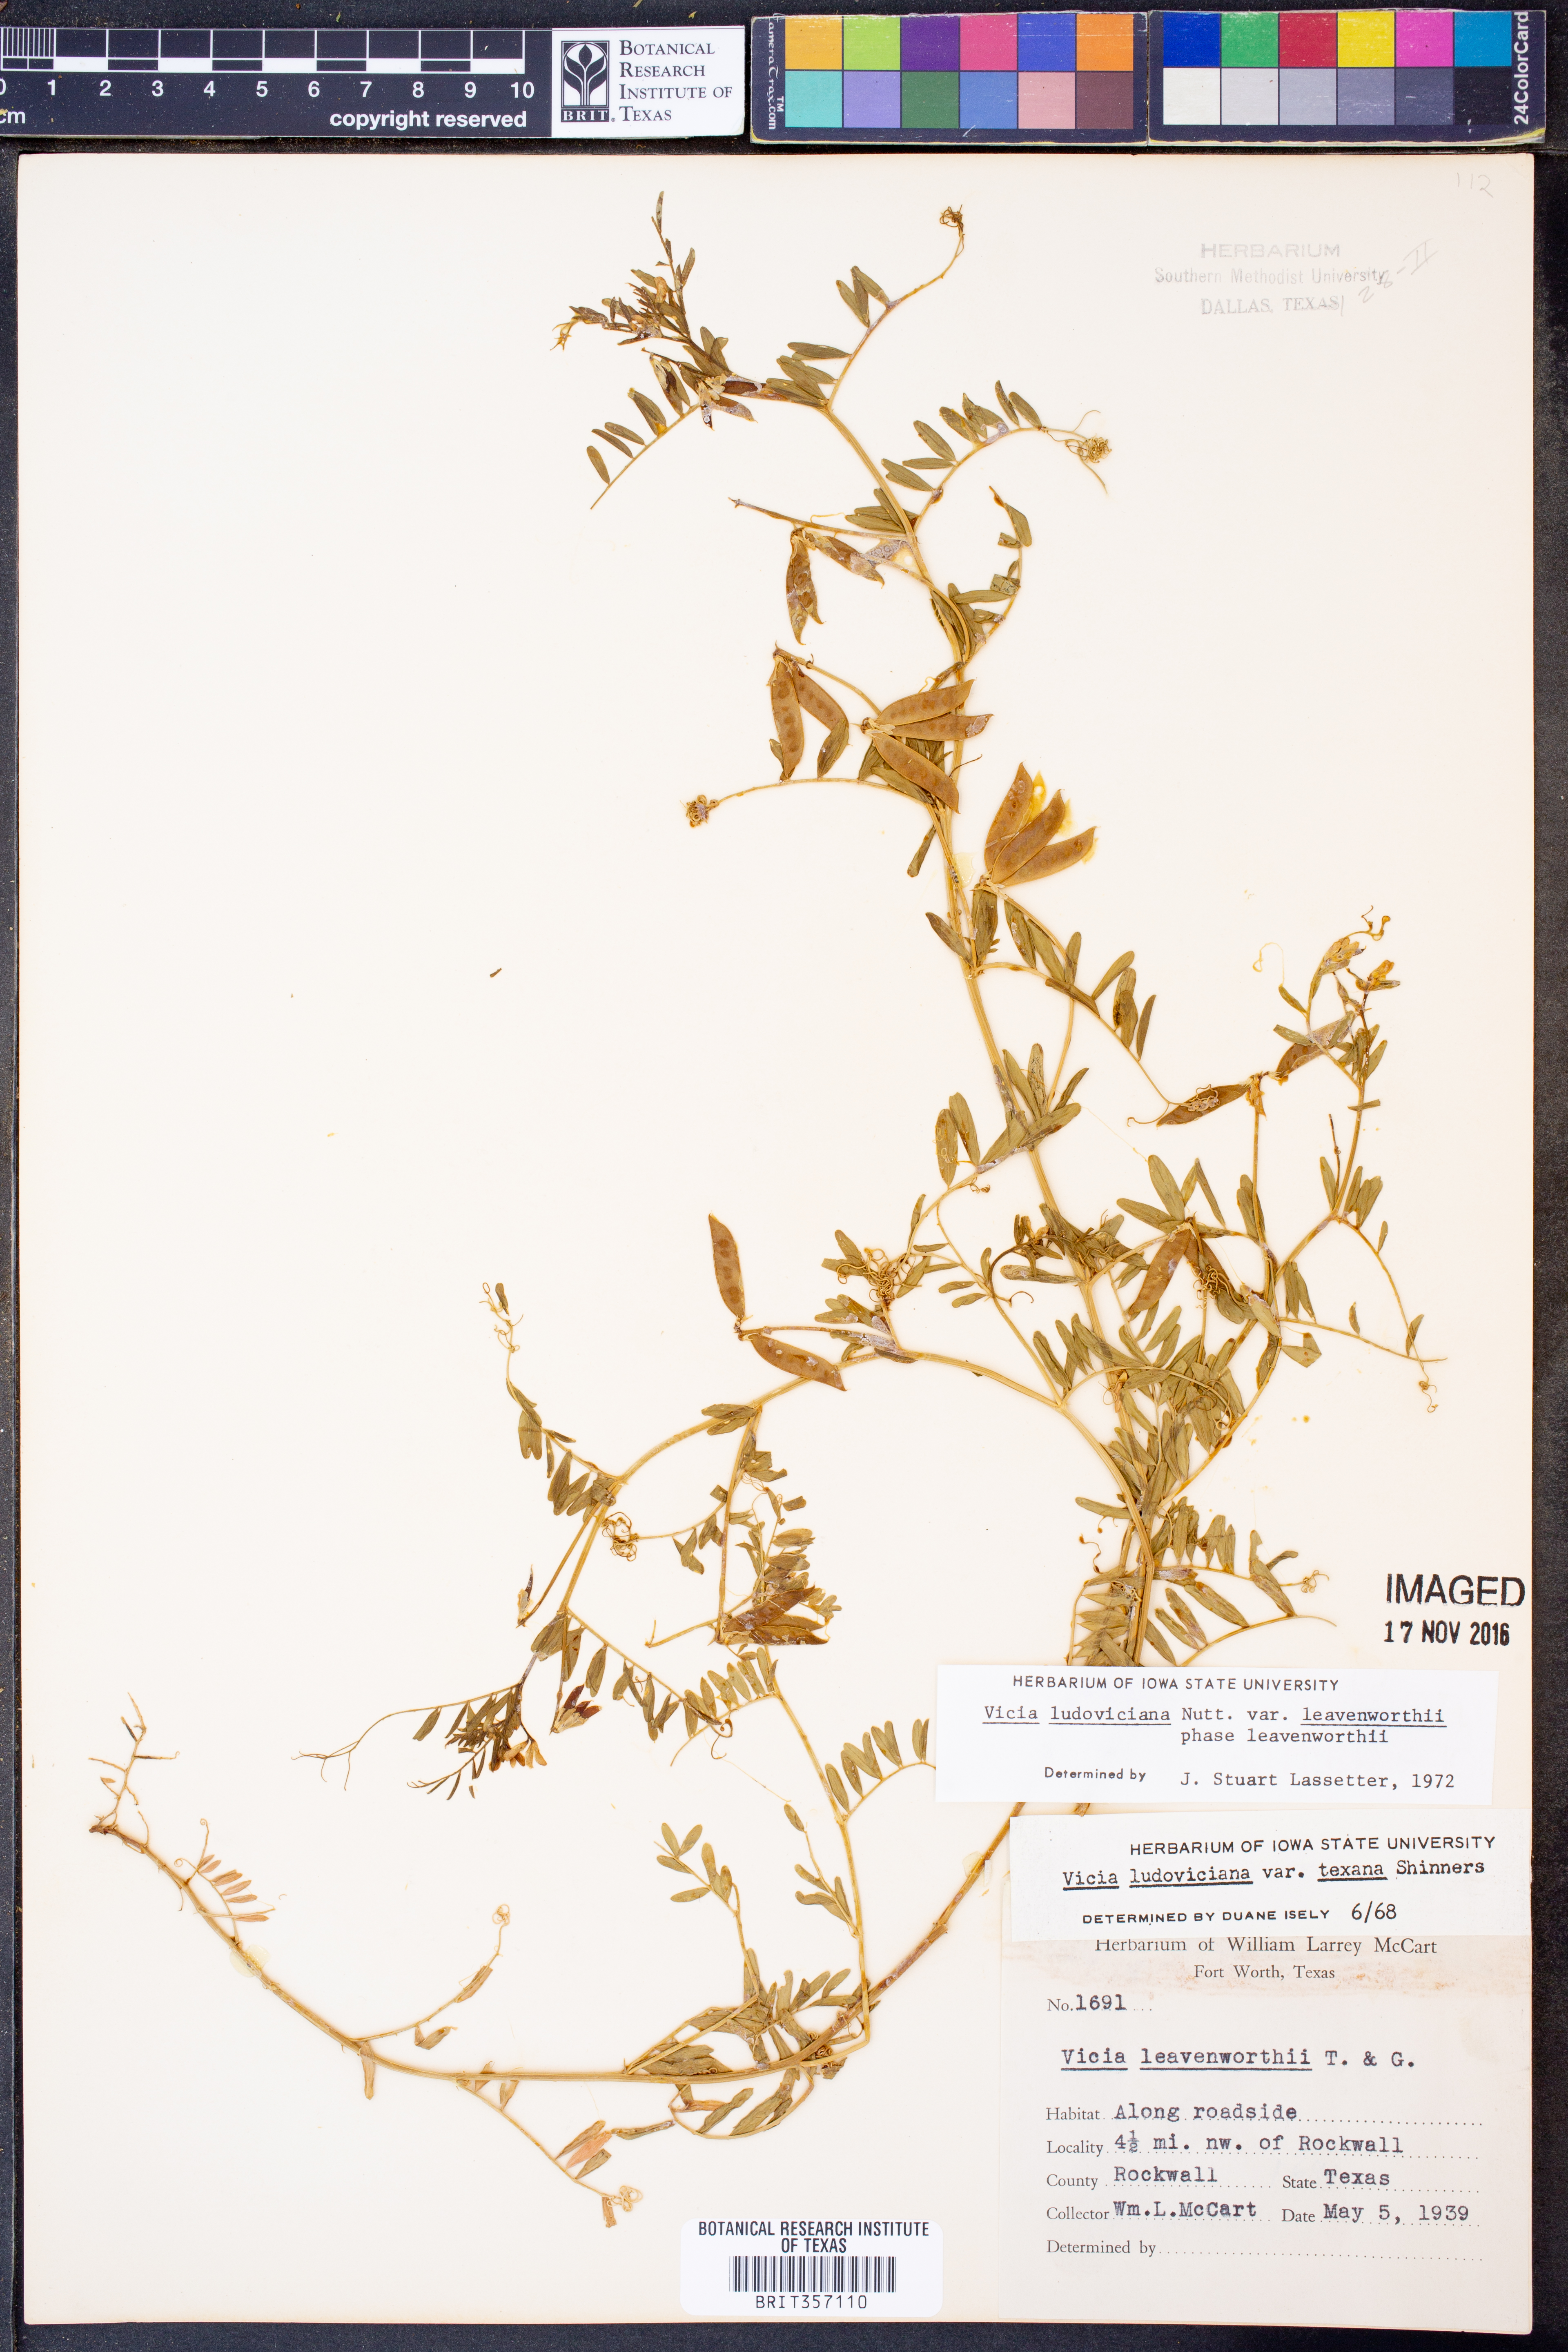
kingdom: Plantae
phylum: Tracheophyta
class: Magnoliopsida
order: Fabales
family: Fabaceae
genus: Vicia
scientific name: Vicia ludoviciana
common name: Louisiana vetch
